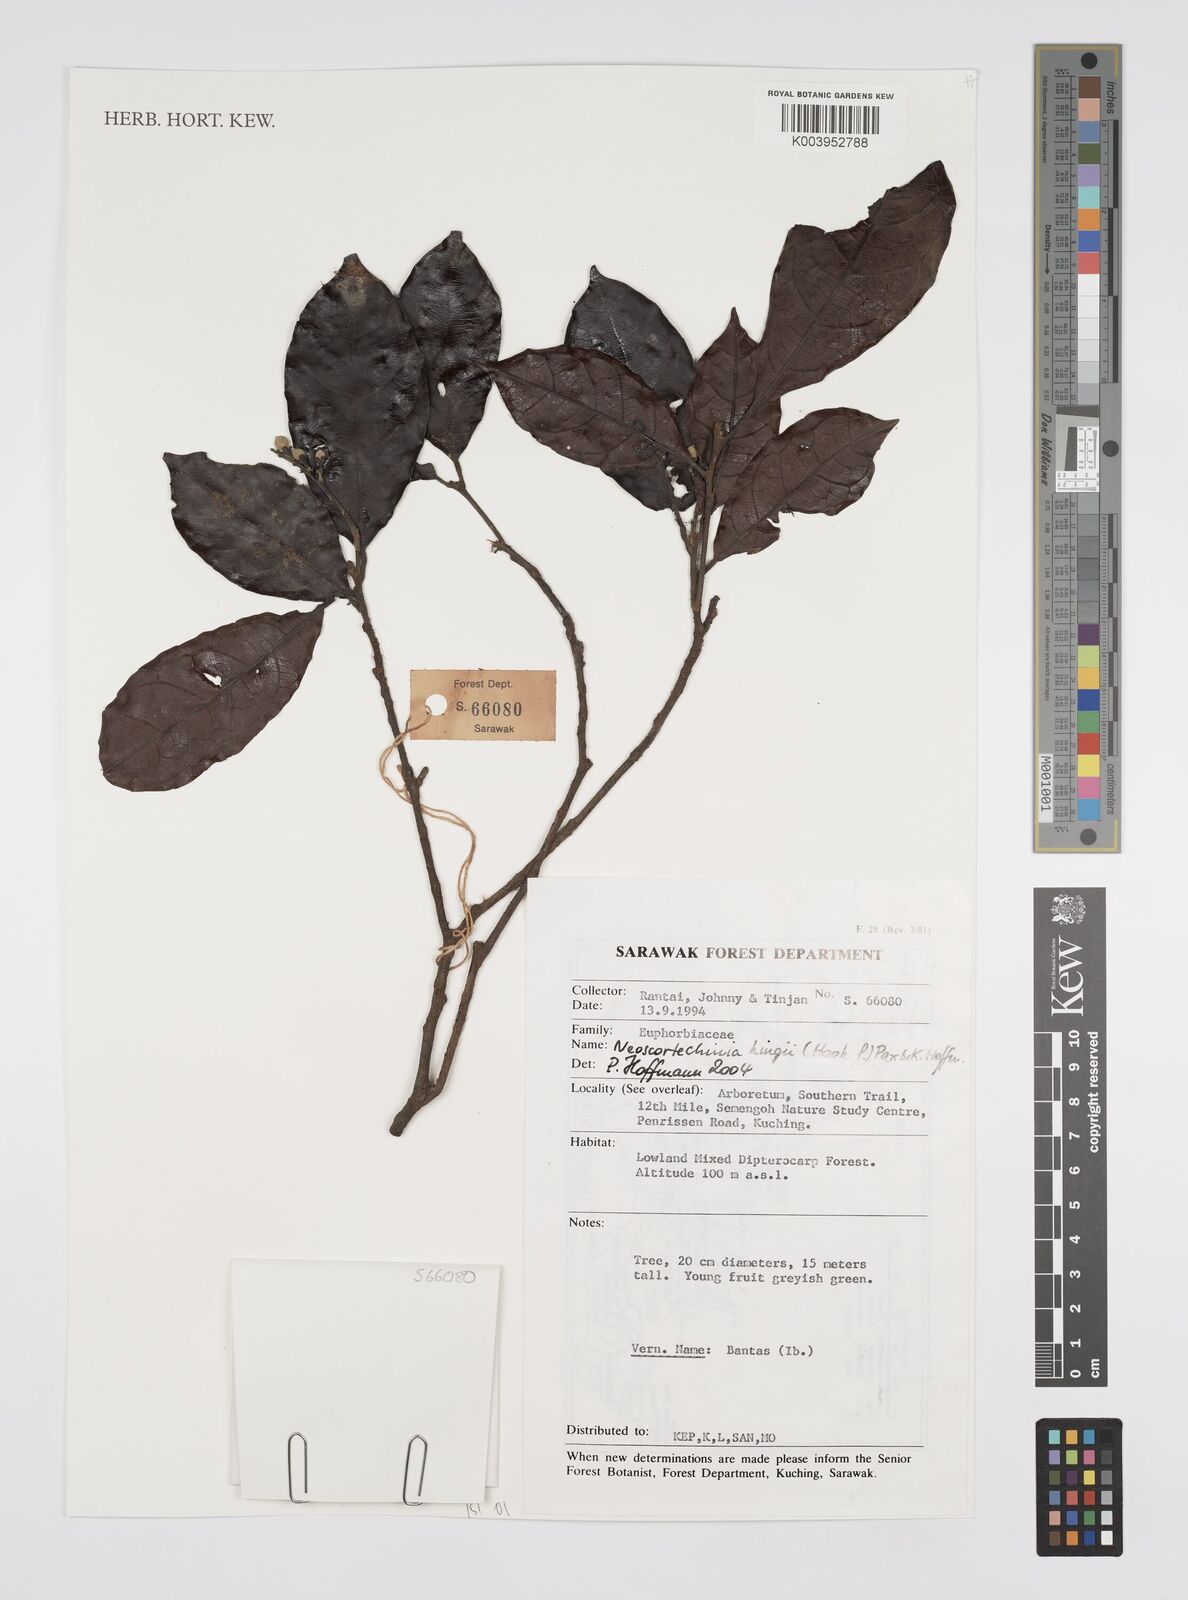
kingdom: Plantae
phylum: Tracheophyta
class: Magnoliopsida
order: Malpighiales
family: Euphorbiaceae
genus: Neoscortechinia
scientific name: Neoscortechinia kingii
